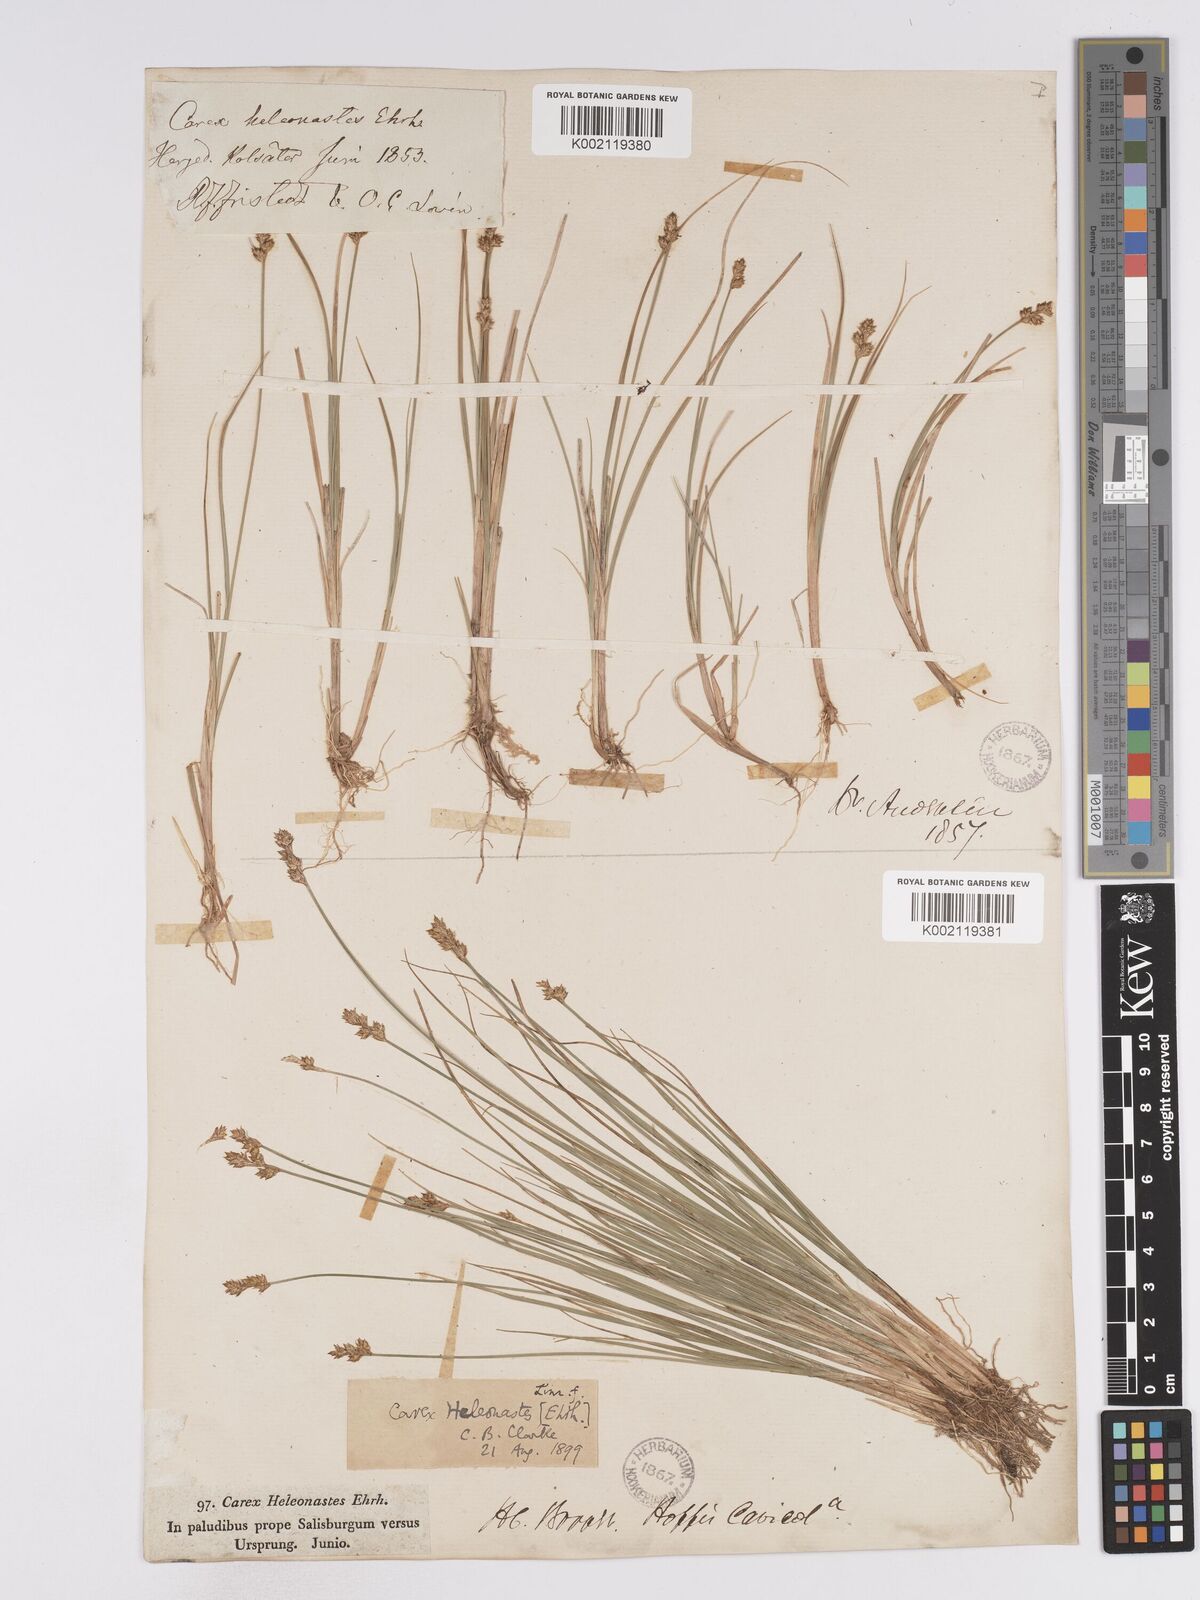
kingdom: Plantae
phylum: Tracheophyta
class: Liliopsida
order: Poales
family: Cyperaceae
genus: Carex
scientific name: Carex heleonastes
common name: Hudson bay sedge
